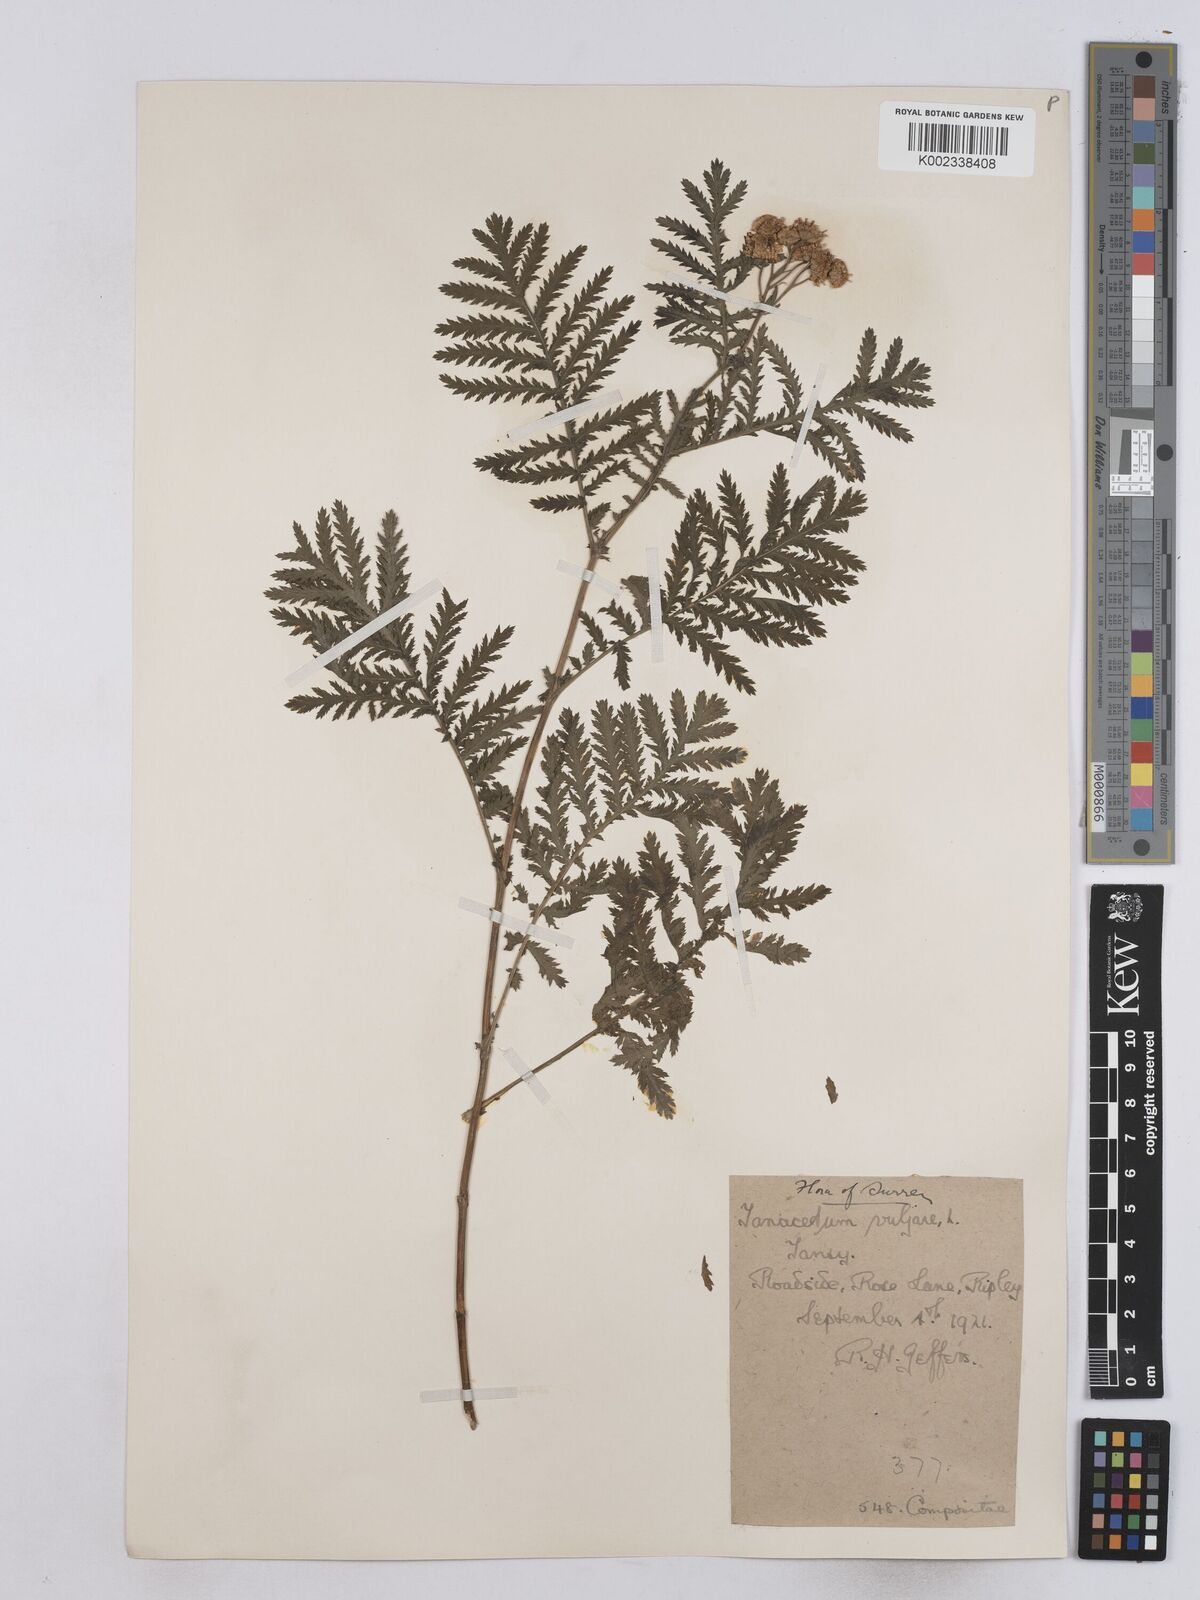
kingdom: Plantae
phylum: Tracheophyta
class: Magnoliopsida
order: Asterales
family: Asteraceae
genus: Tanacetum
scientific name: Tanacetum vulgare
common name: Common tansy
